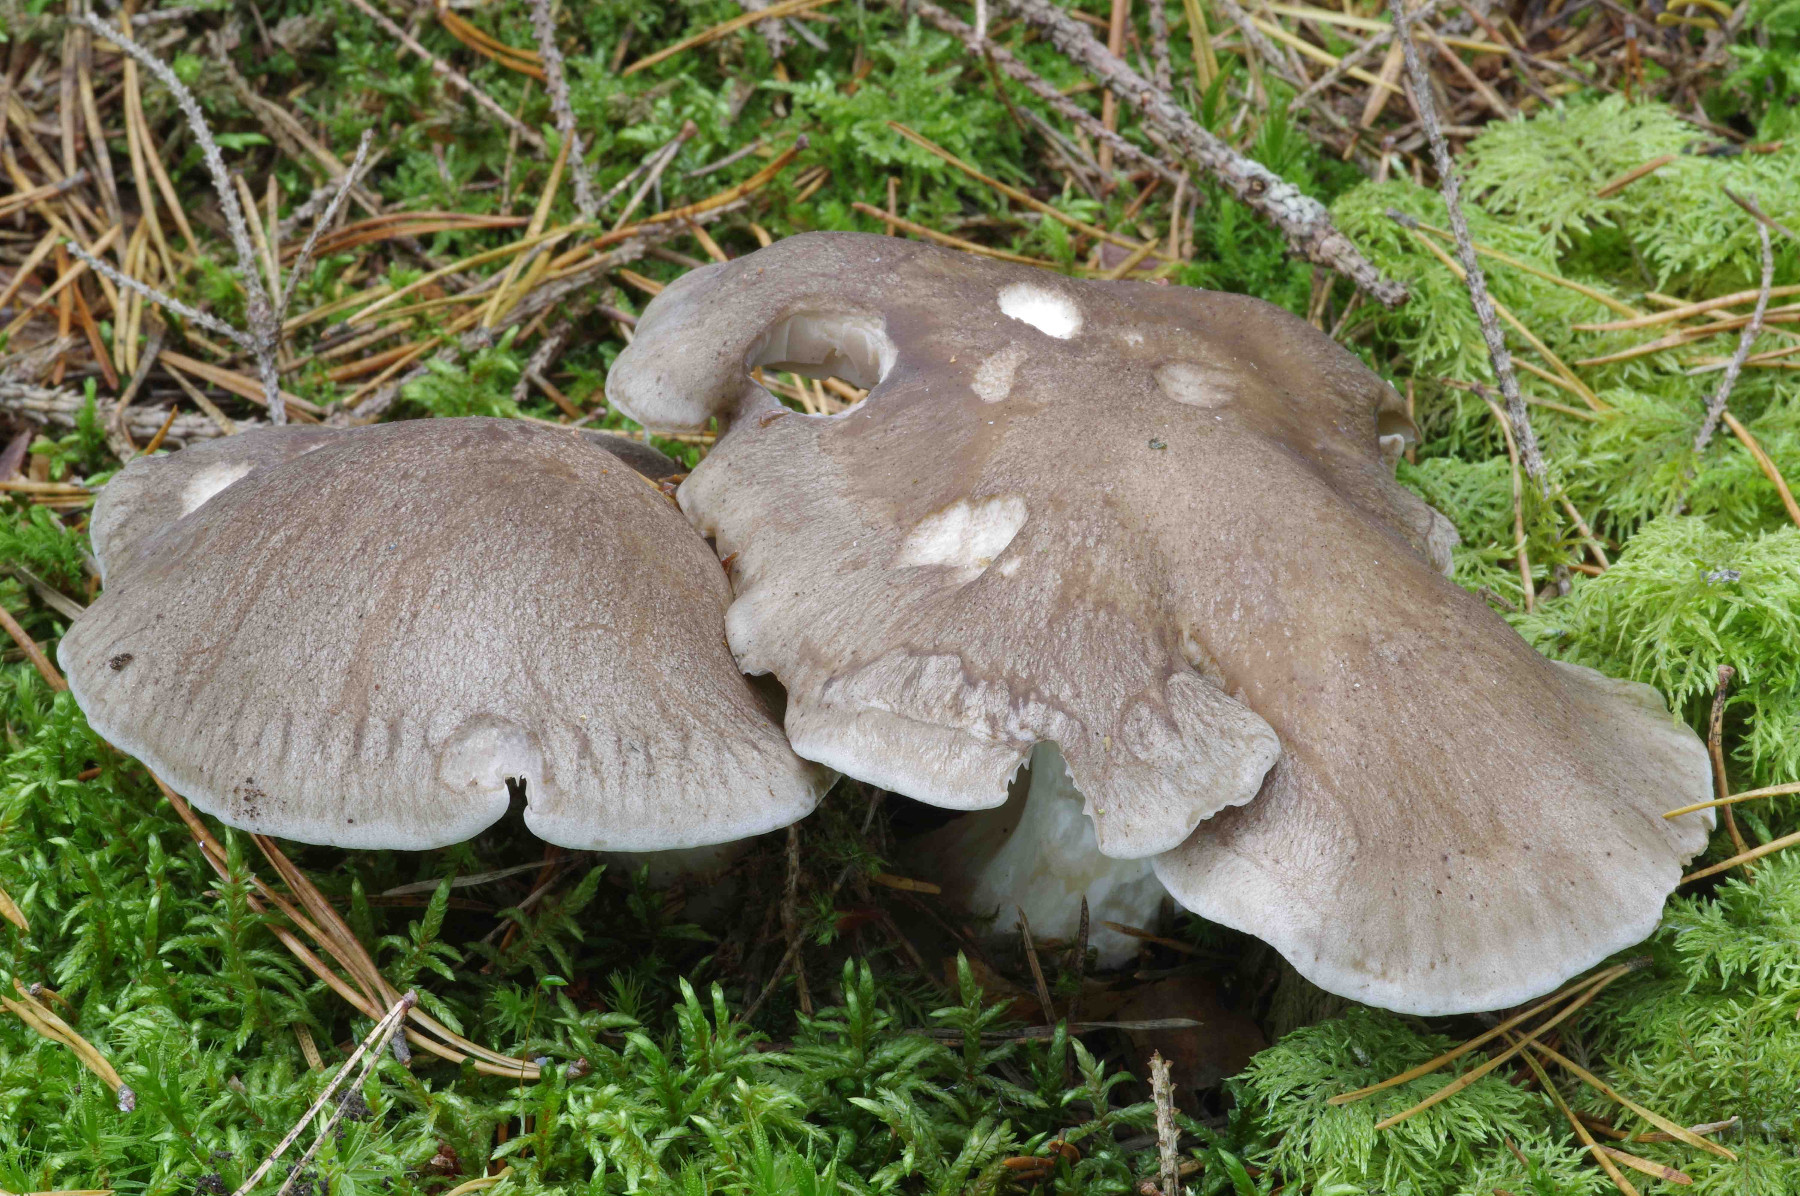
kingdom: Fungi
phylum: Basidiomycota
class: Agaricomycetes
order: Agaricales
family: Lyophyllaceae
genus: Lyophyllum
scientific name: Lyophyllum shimeji
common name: shimeji-gråblad
